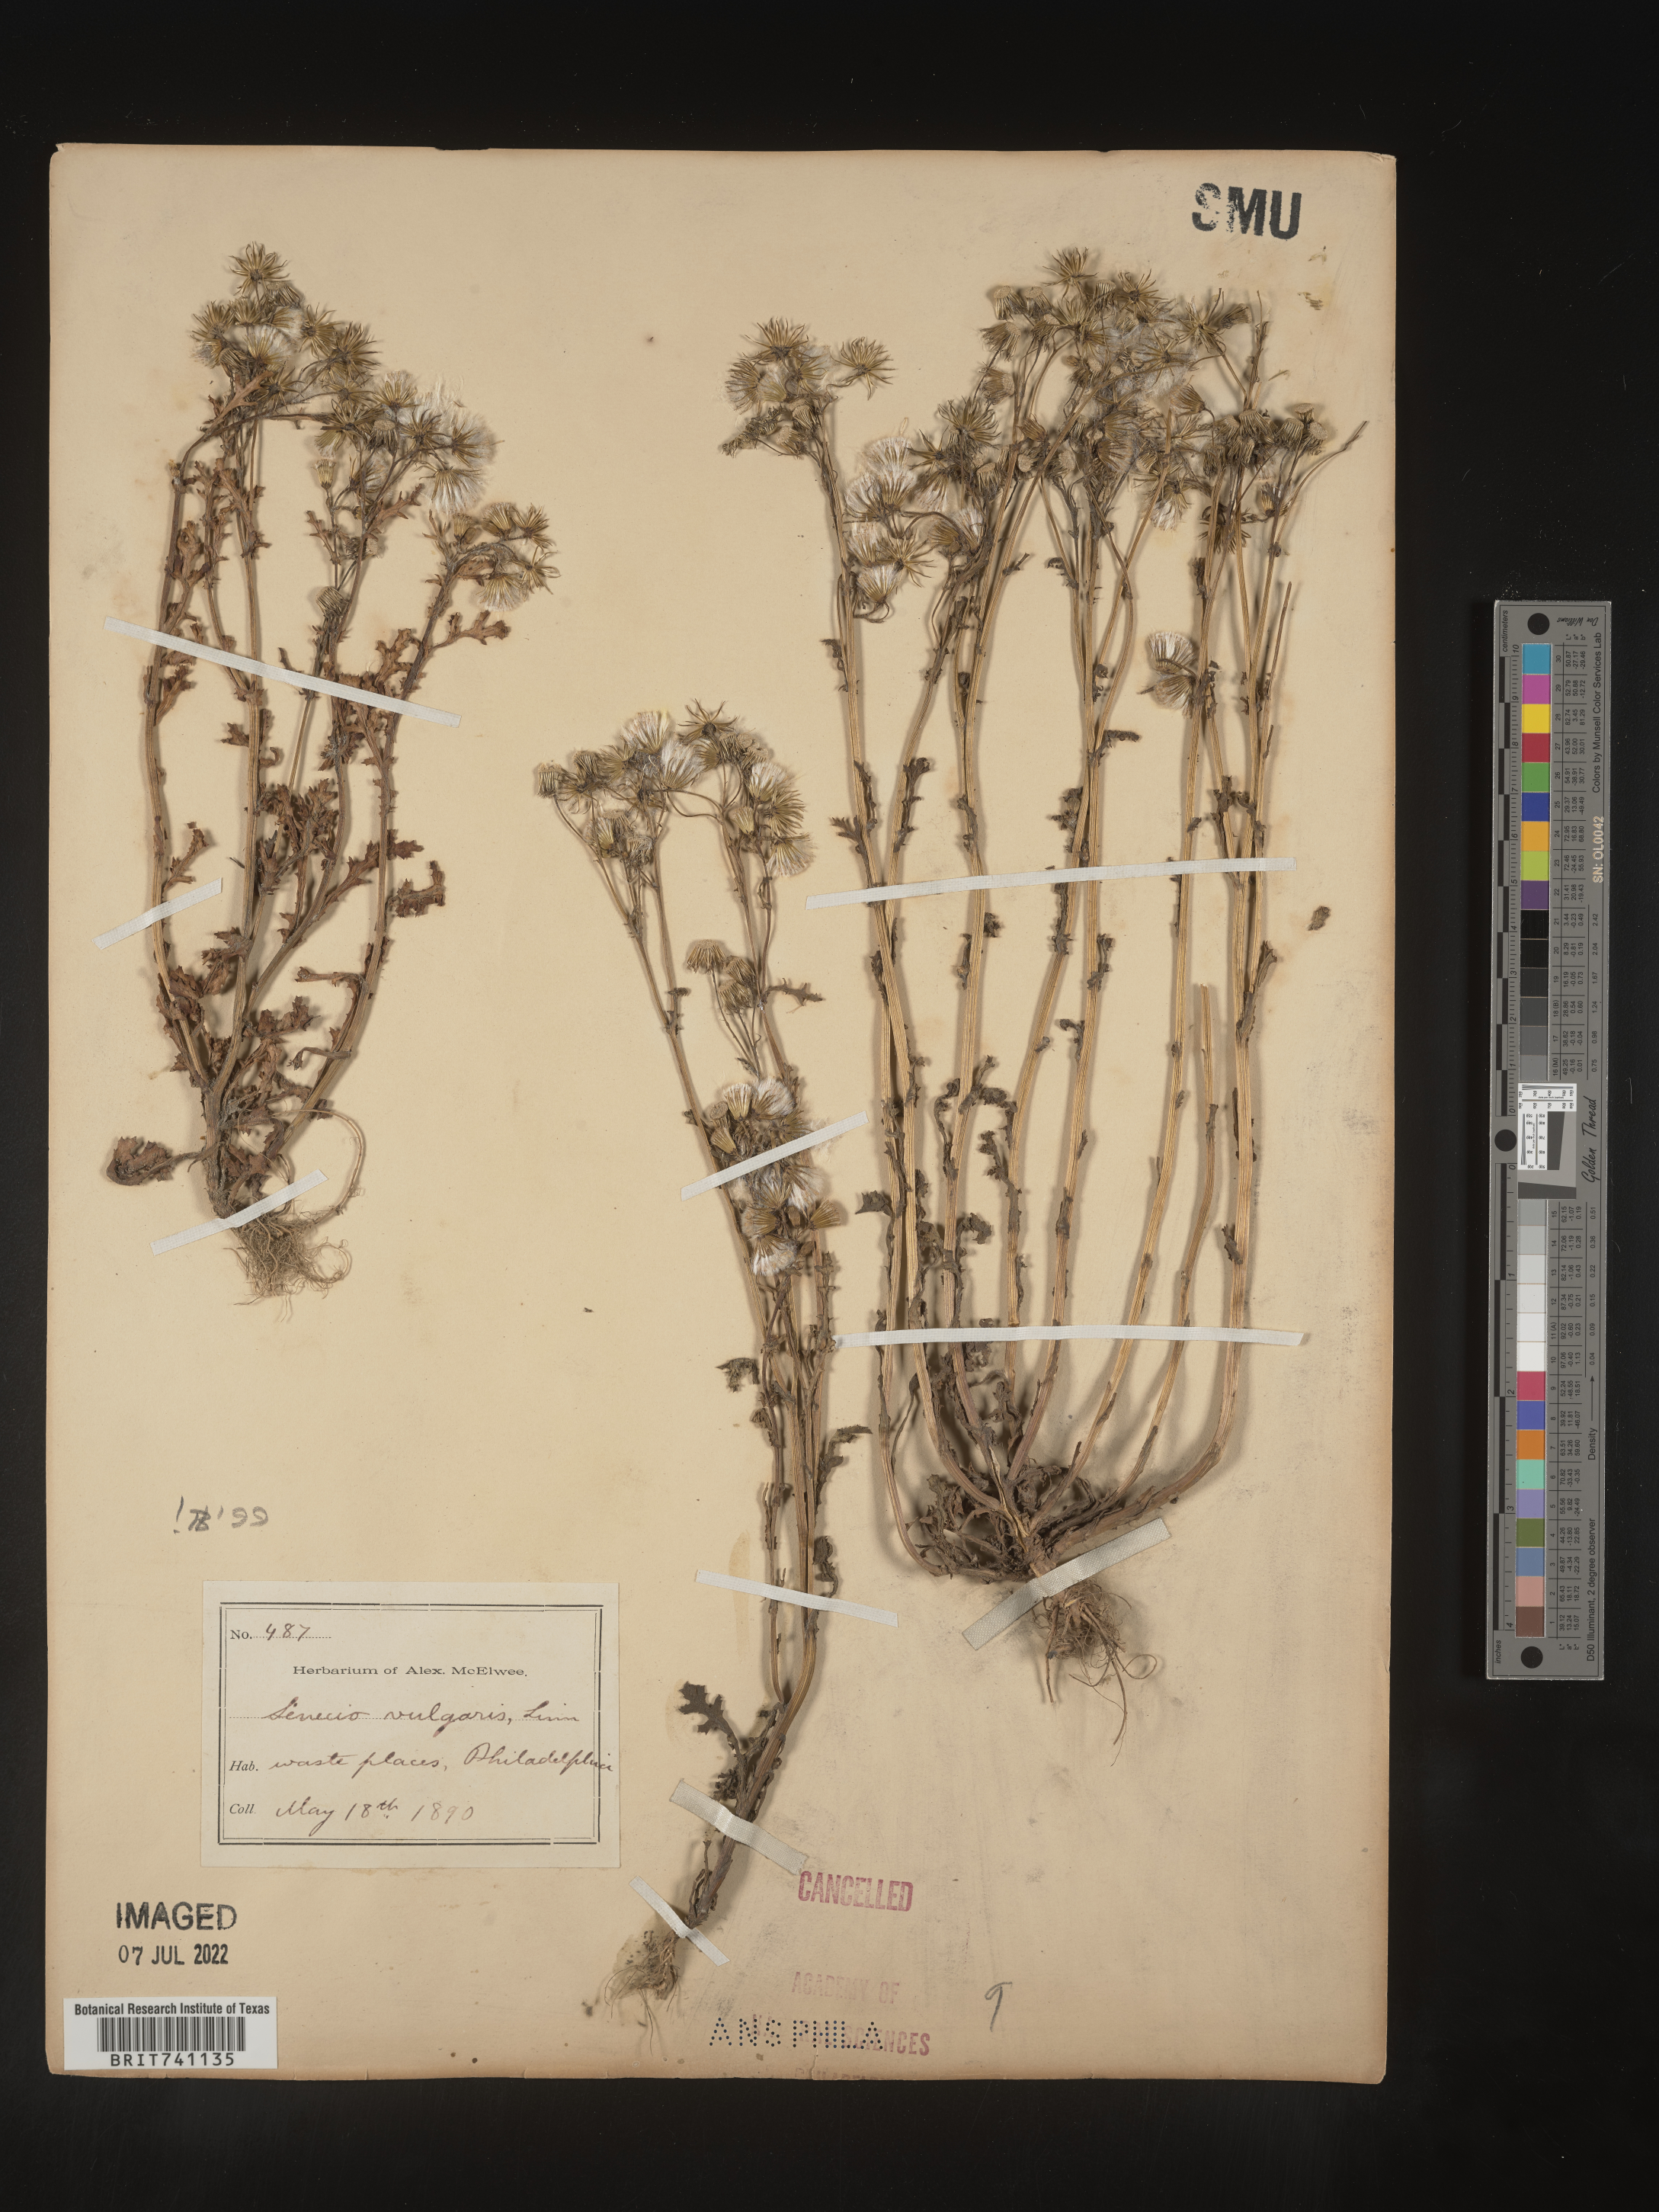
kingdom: Plantae
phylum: Tracheophyta
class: Magnoliopsida
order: Asterales
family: Asteraceae
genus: Senecio
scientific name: Senecio vulgaris
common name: Old-man-in-the-spring
